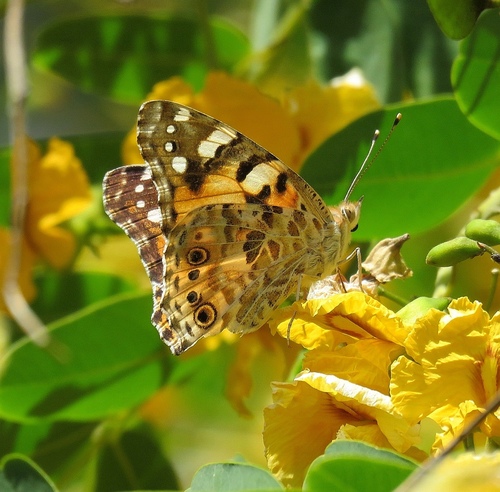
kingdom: Animalia
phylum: Arthropoda
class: Insecta
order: Lepidoptera
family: Nymphalidae
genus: Vanessa
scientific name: Vanessa cardui
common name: Painted lady
